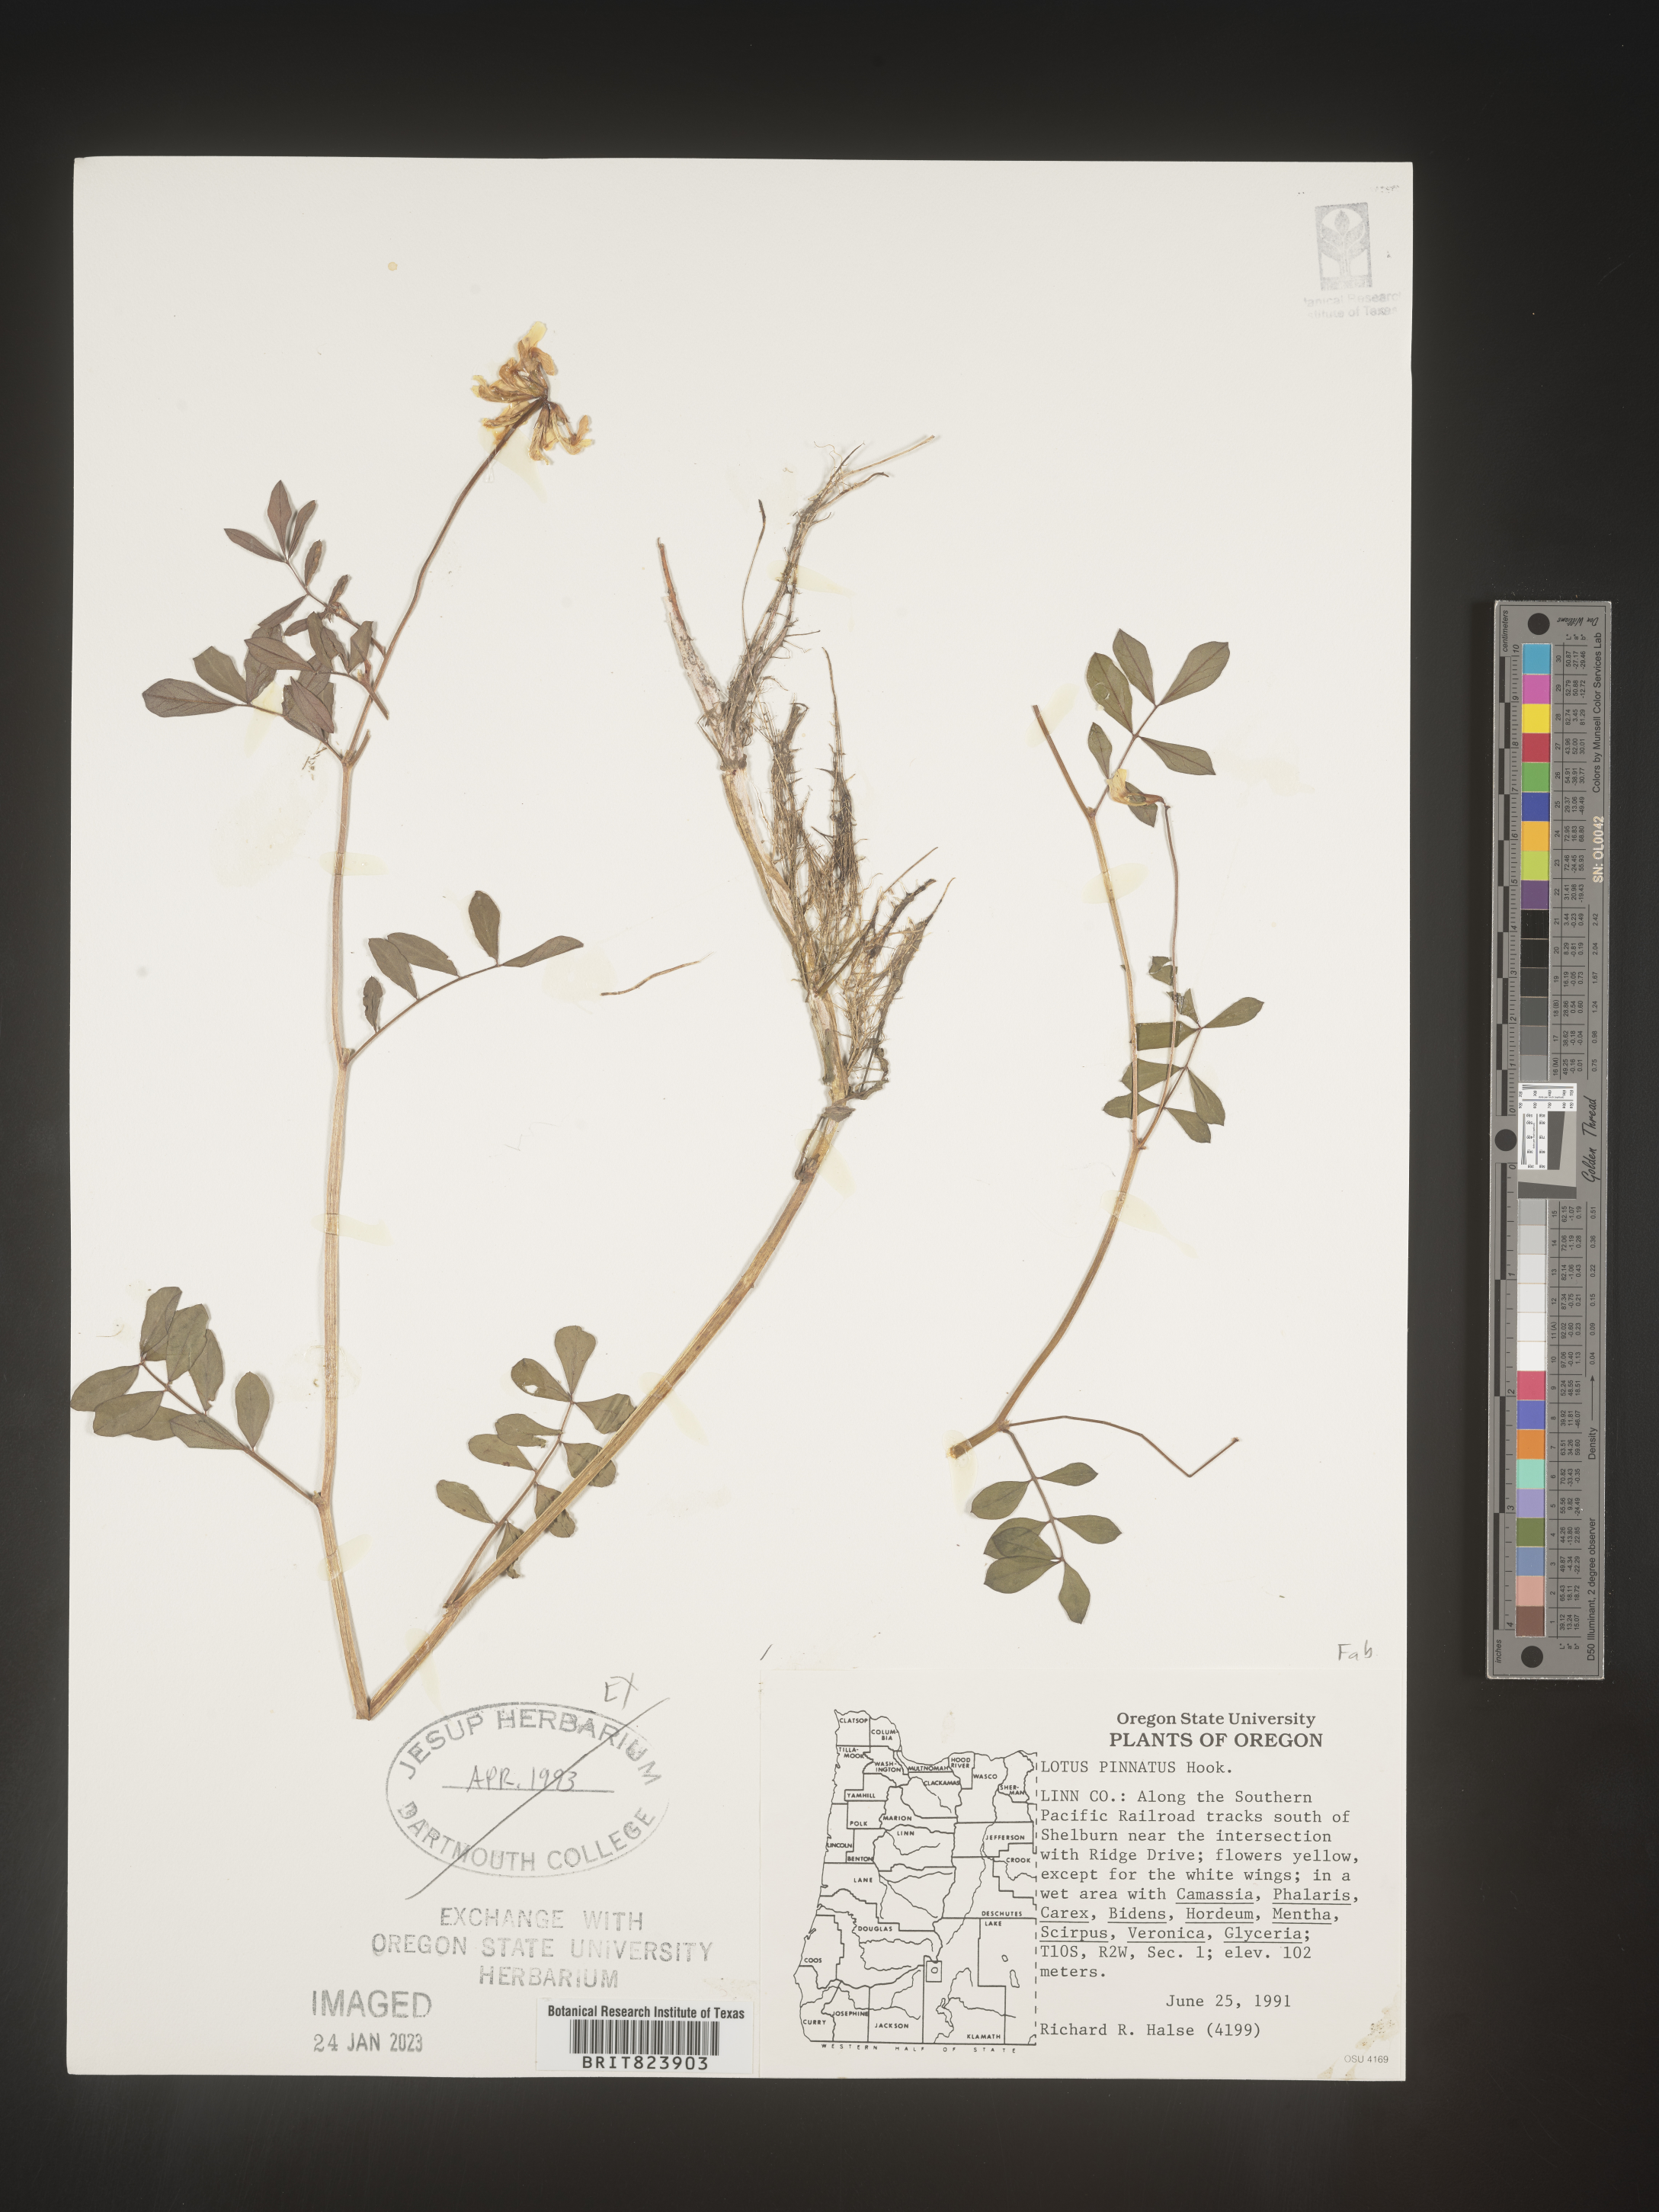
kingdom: Plantae
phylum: Tracheophyta
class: Magnoliopsida
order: Fabales
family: Fabaceae
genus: Lotus
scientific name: Lotus
